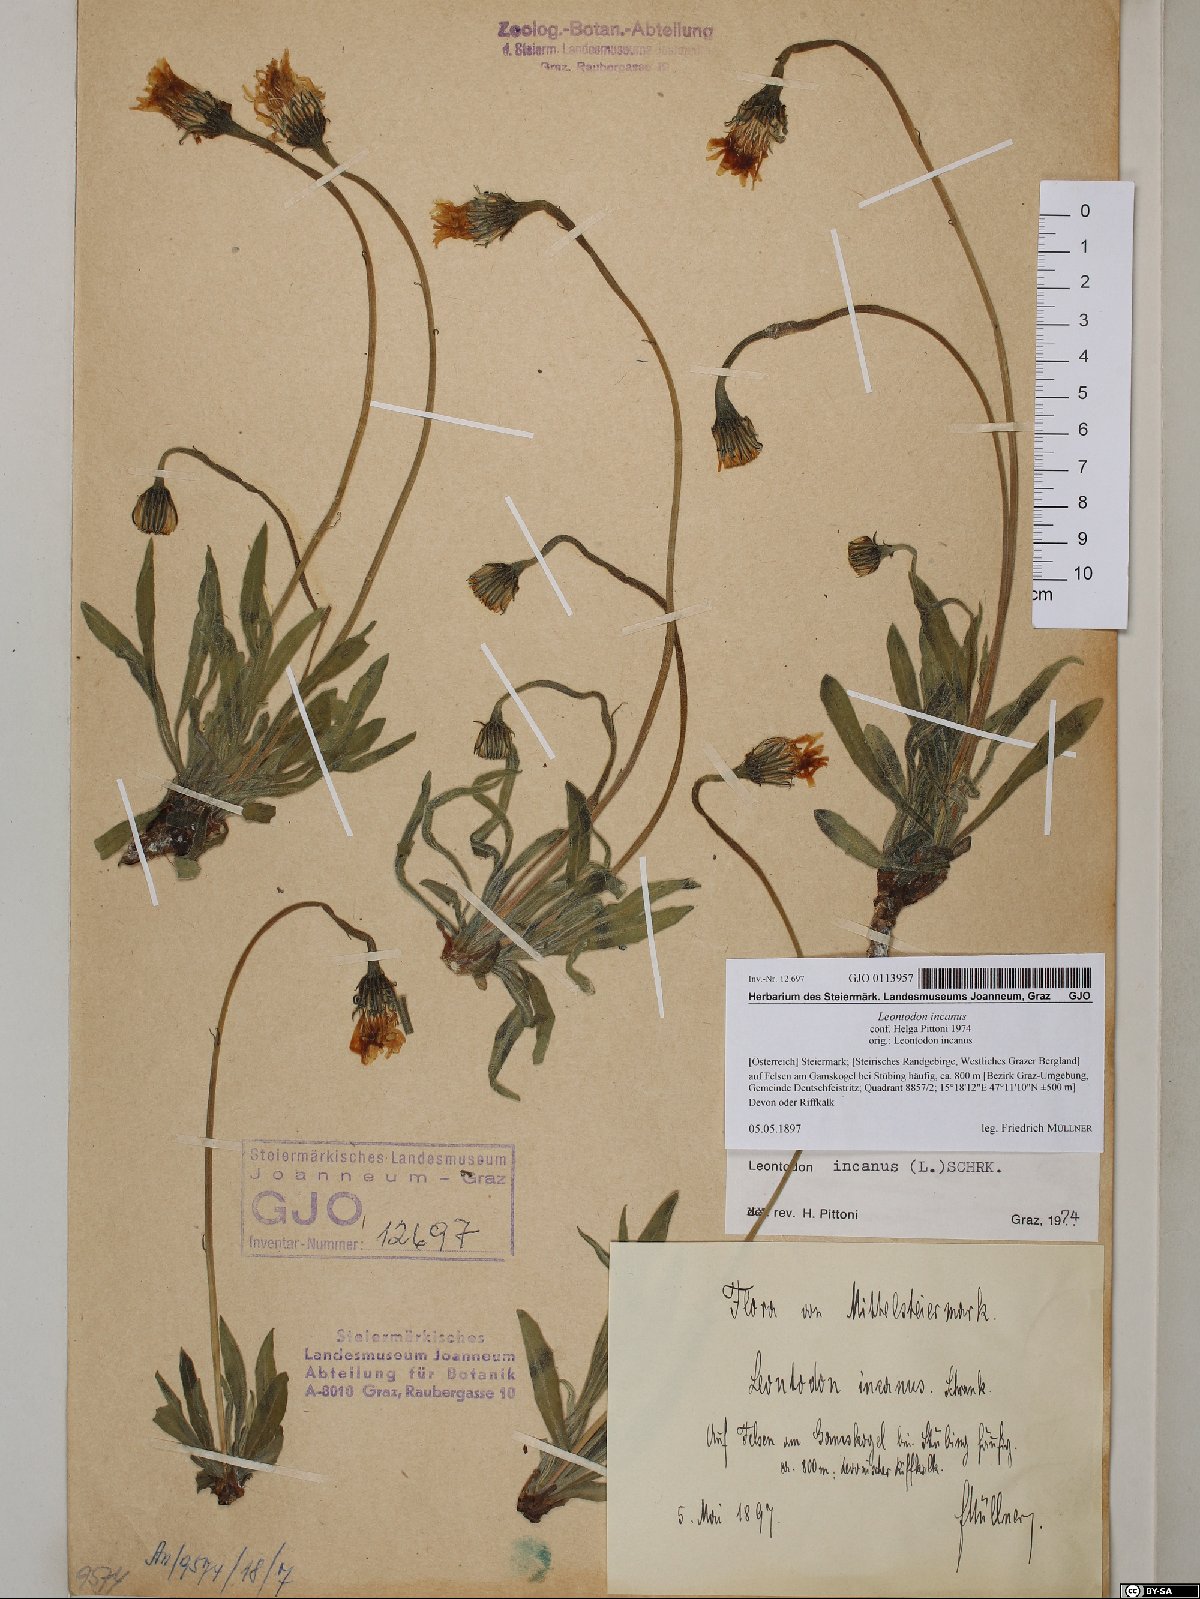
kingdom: Plantae
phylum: Tracheophyta
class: Magnoliopsida
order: Asterales
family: Asteraceae
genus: Leontodon
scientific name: Leontodon incanus
